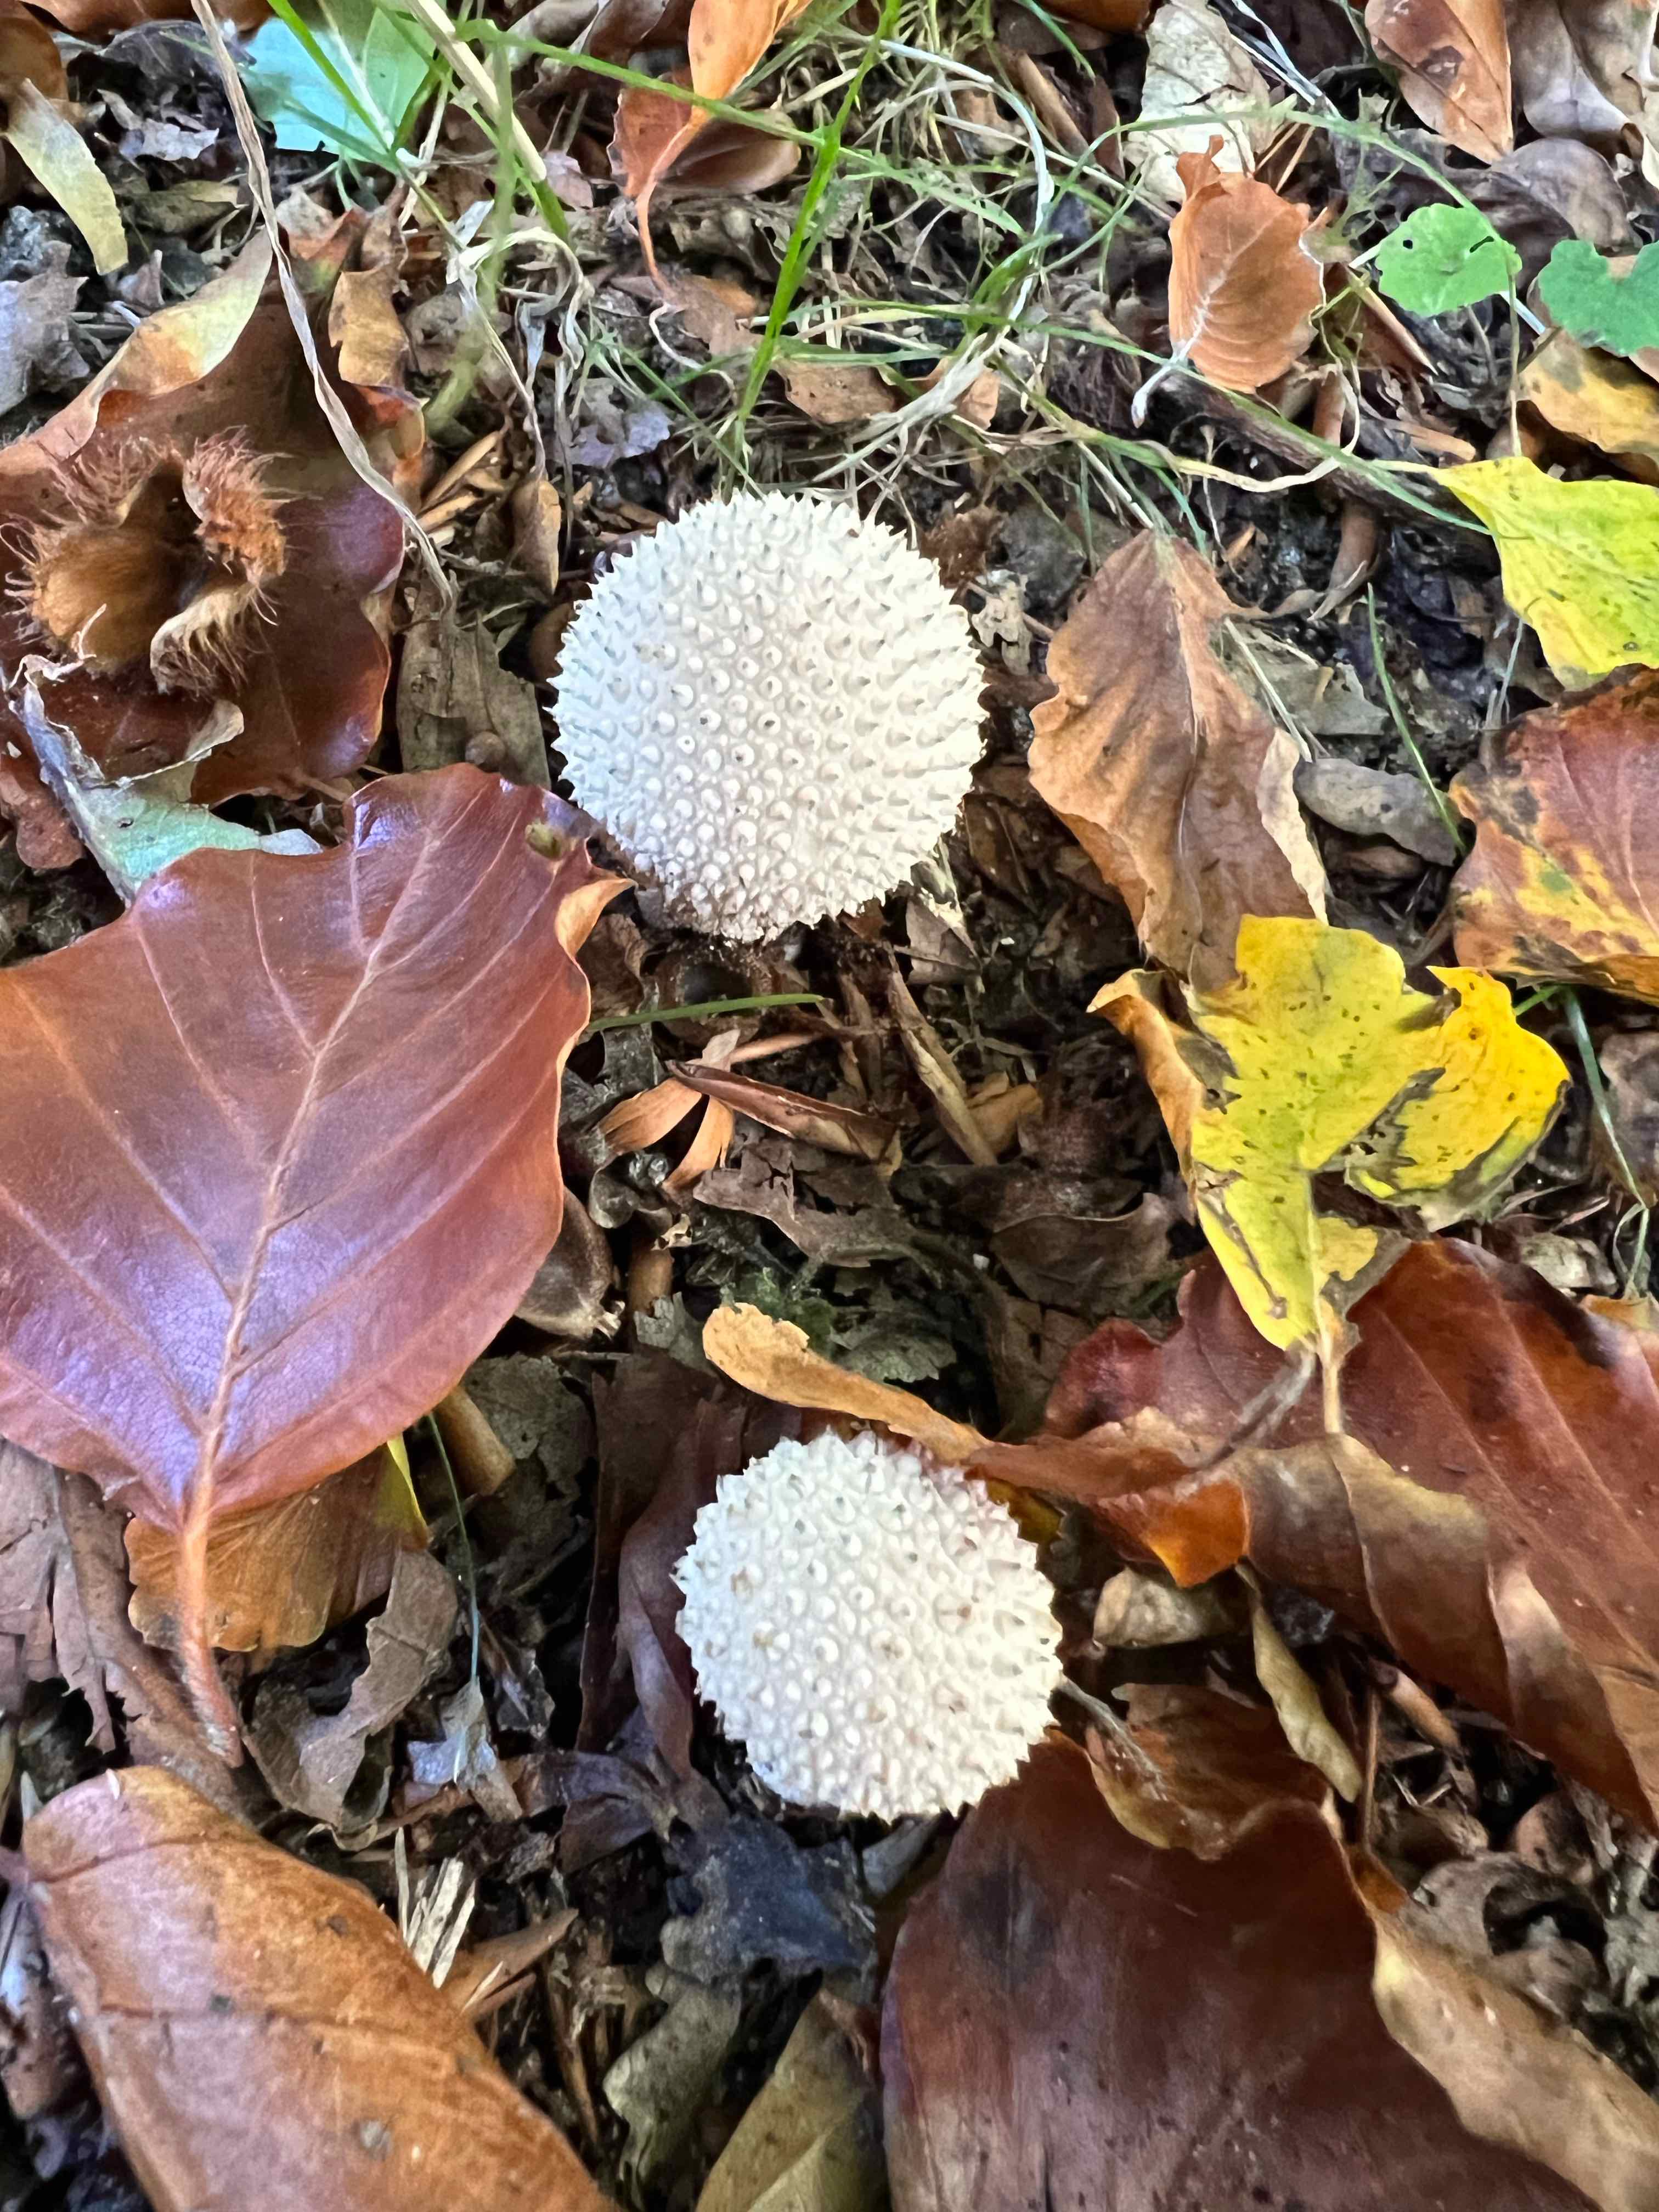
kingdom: Fungi
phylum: Basidiomycota
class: Agaricomycetes
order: Agaricales
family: Lycoperdaceae
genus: Lycoperdon
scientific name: Lycoperdon perlatum
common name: krystal-støvbold
